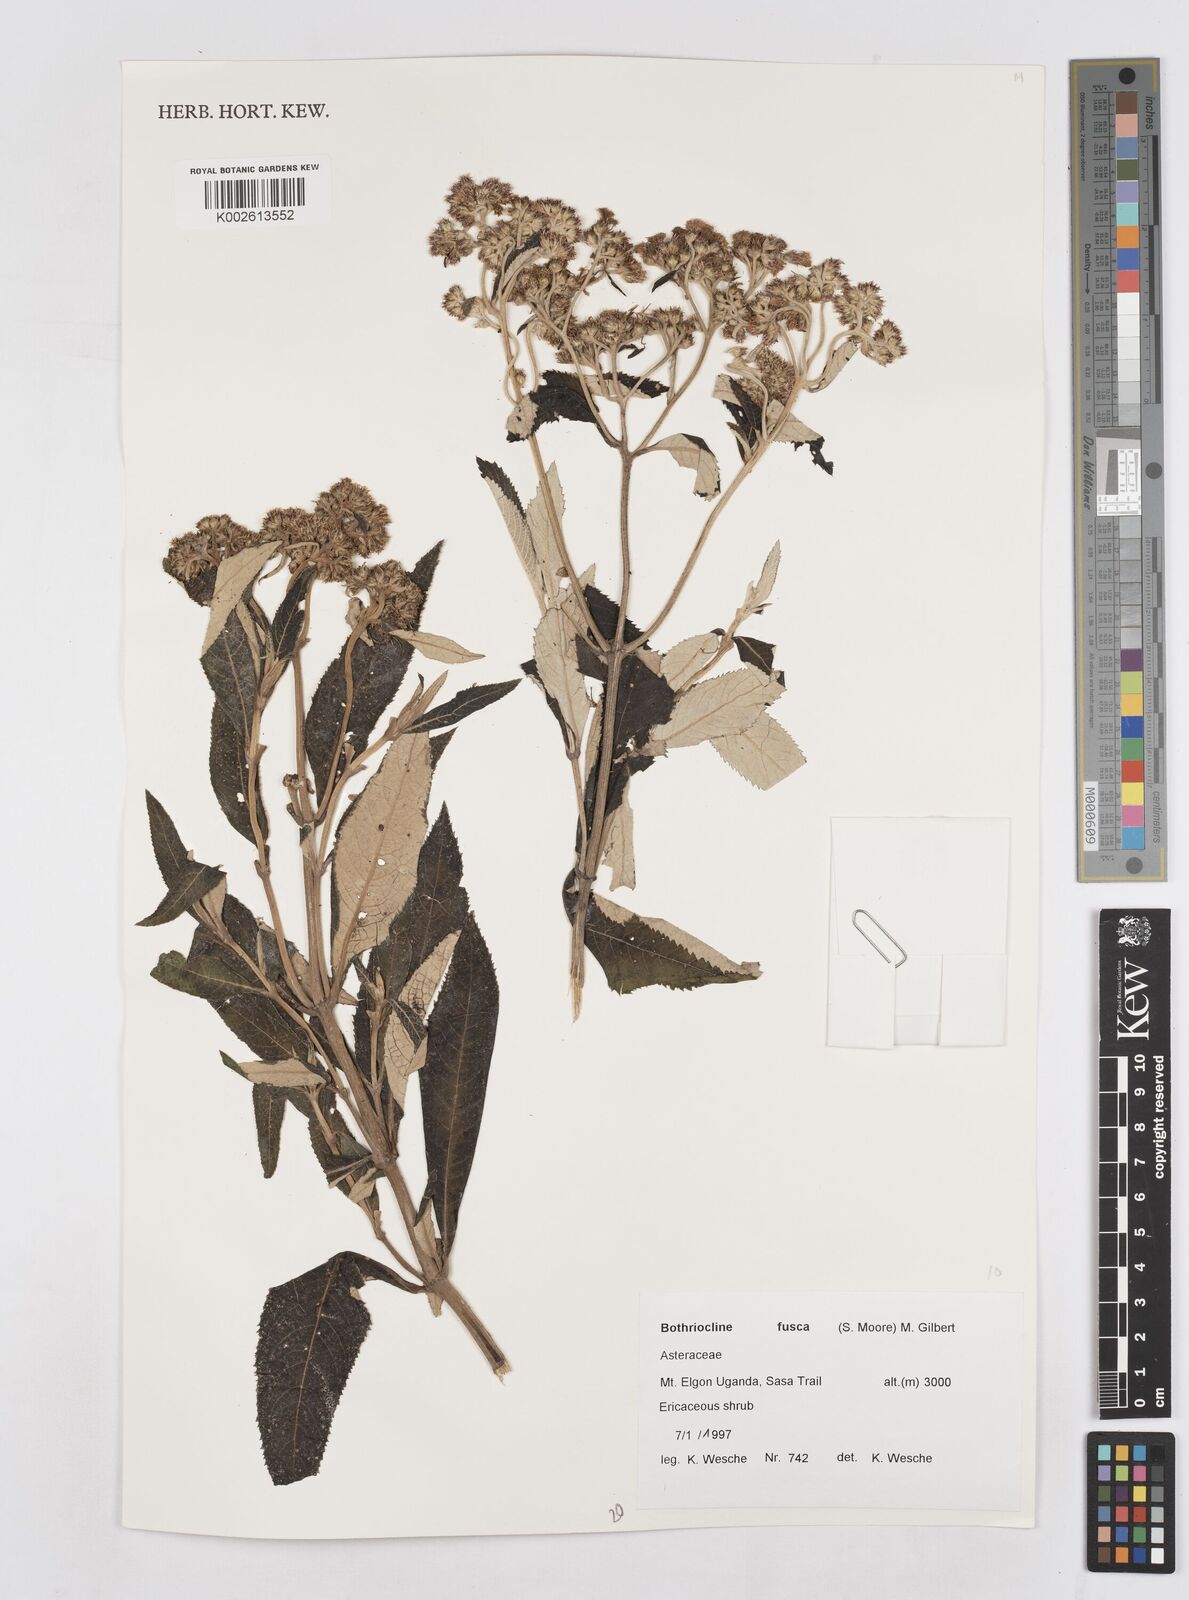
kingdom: Plantae
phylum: Tracheophyta
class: Magnoliopsida
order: Asterales
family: Asteraceae
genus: Bothriocline
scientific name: Bothriocline fusca
